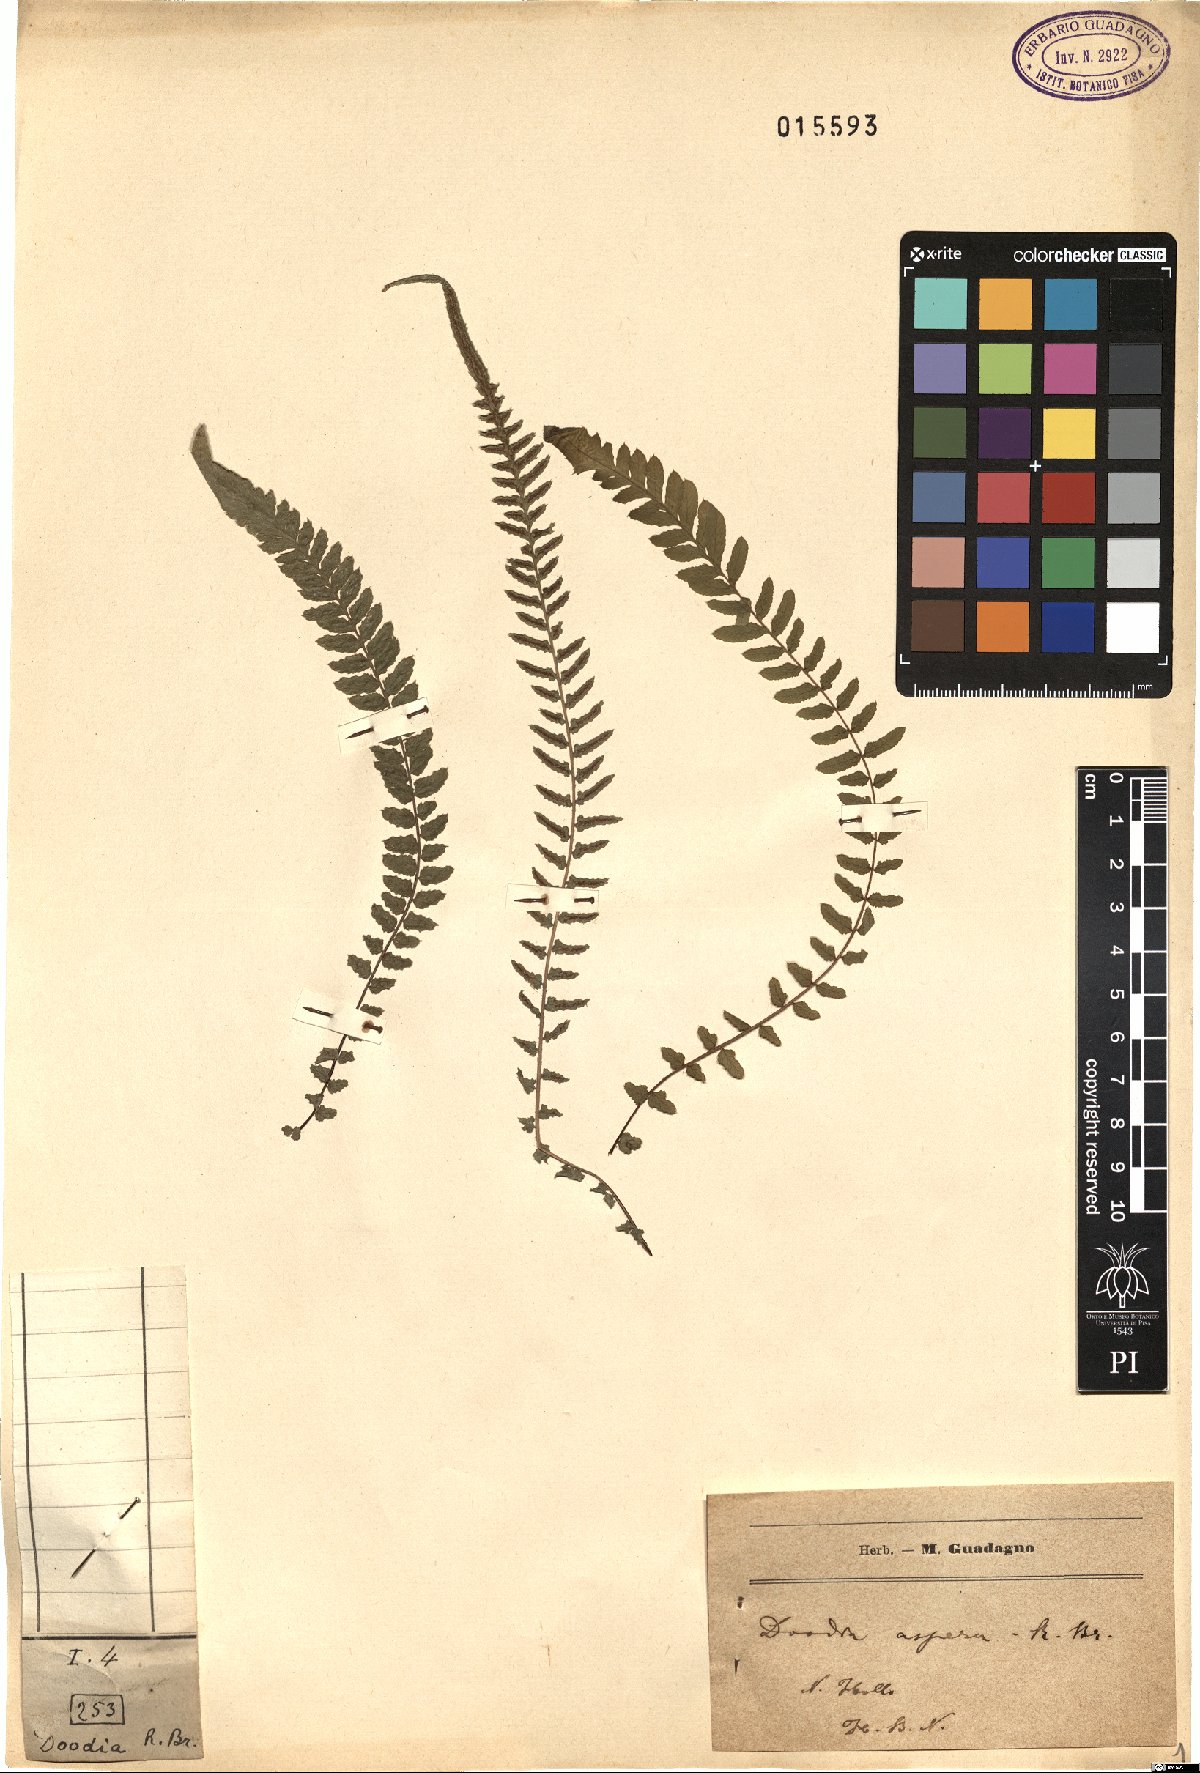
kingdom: Plantae
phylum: Tracheophyta
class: Polypodiopsida
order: Polypodiales
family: Blechnaceae
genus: Doodia
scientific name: Doodia aspera
